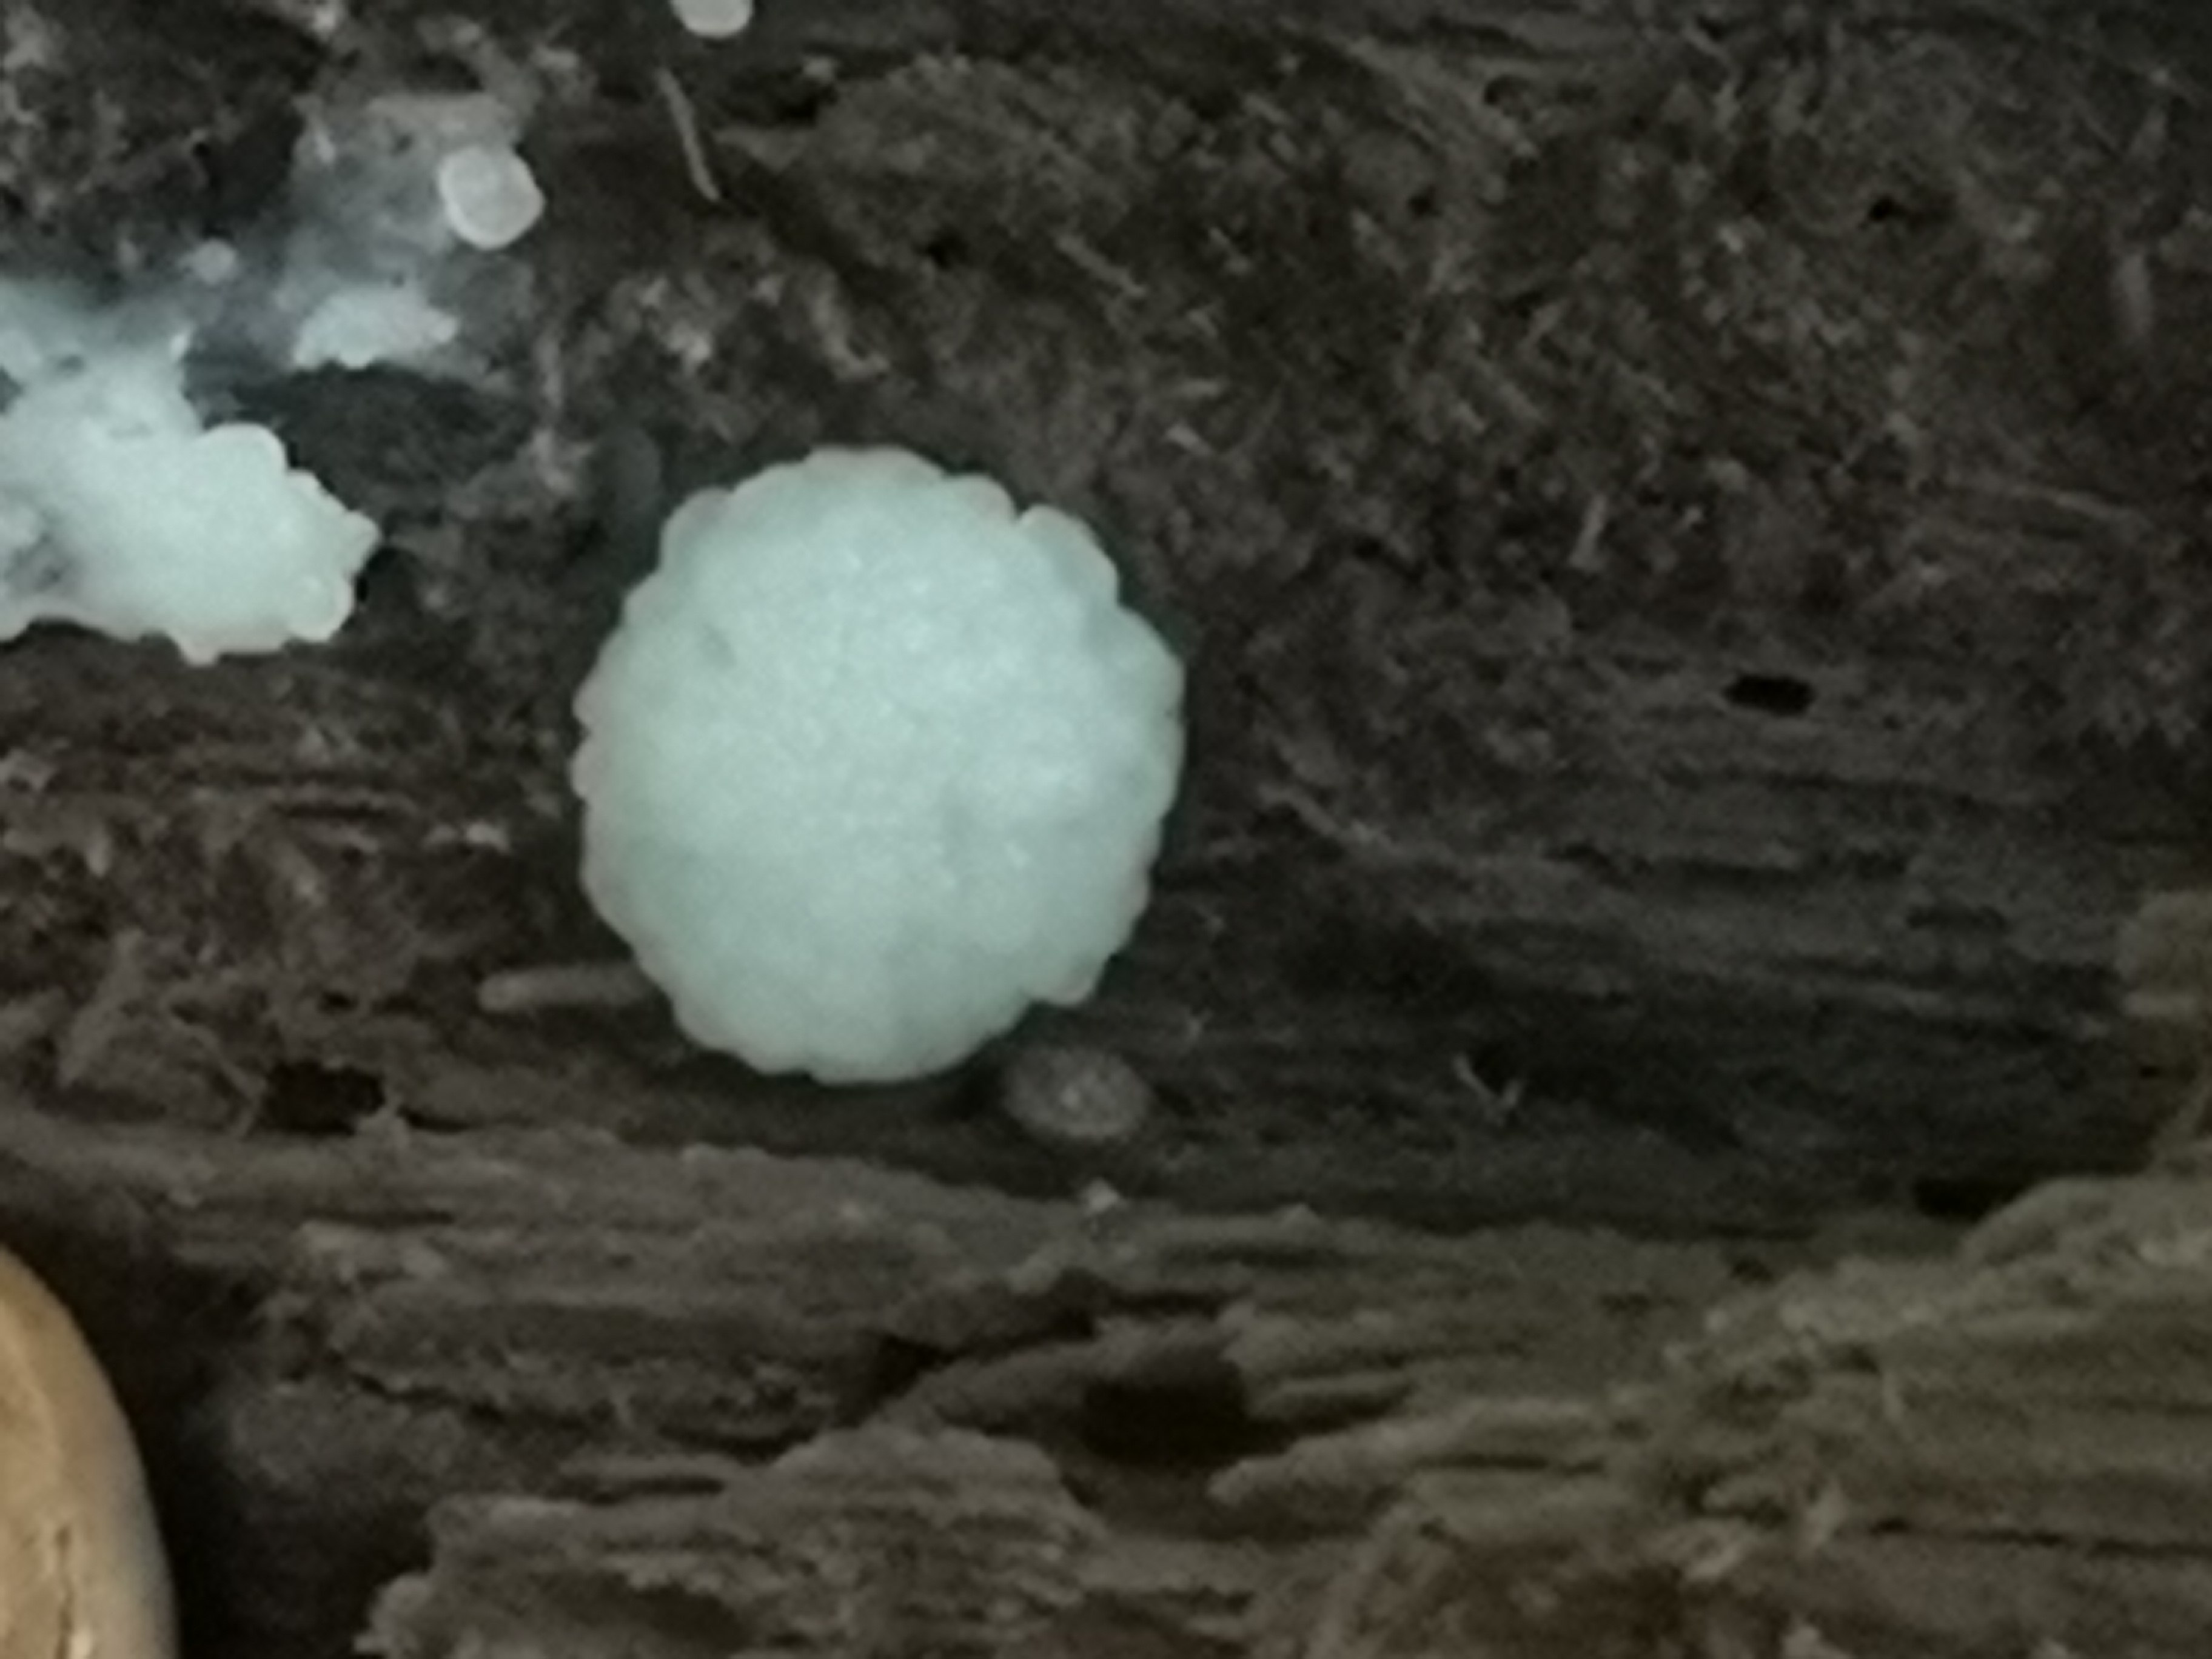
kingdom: Protozoa
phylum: Mycetozoa
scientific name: Mycetozoa
